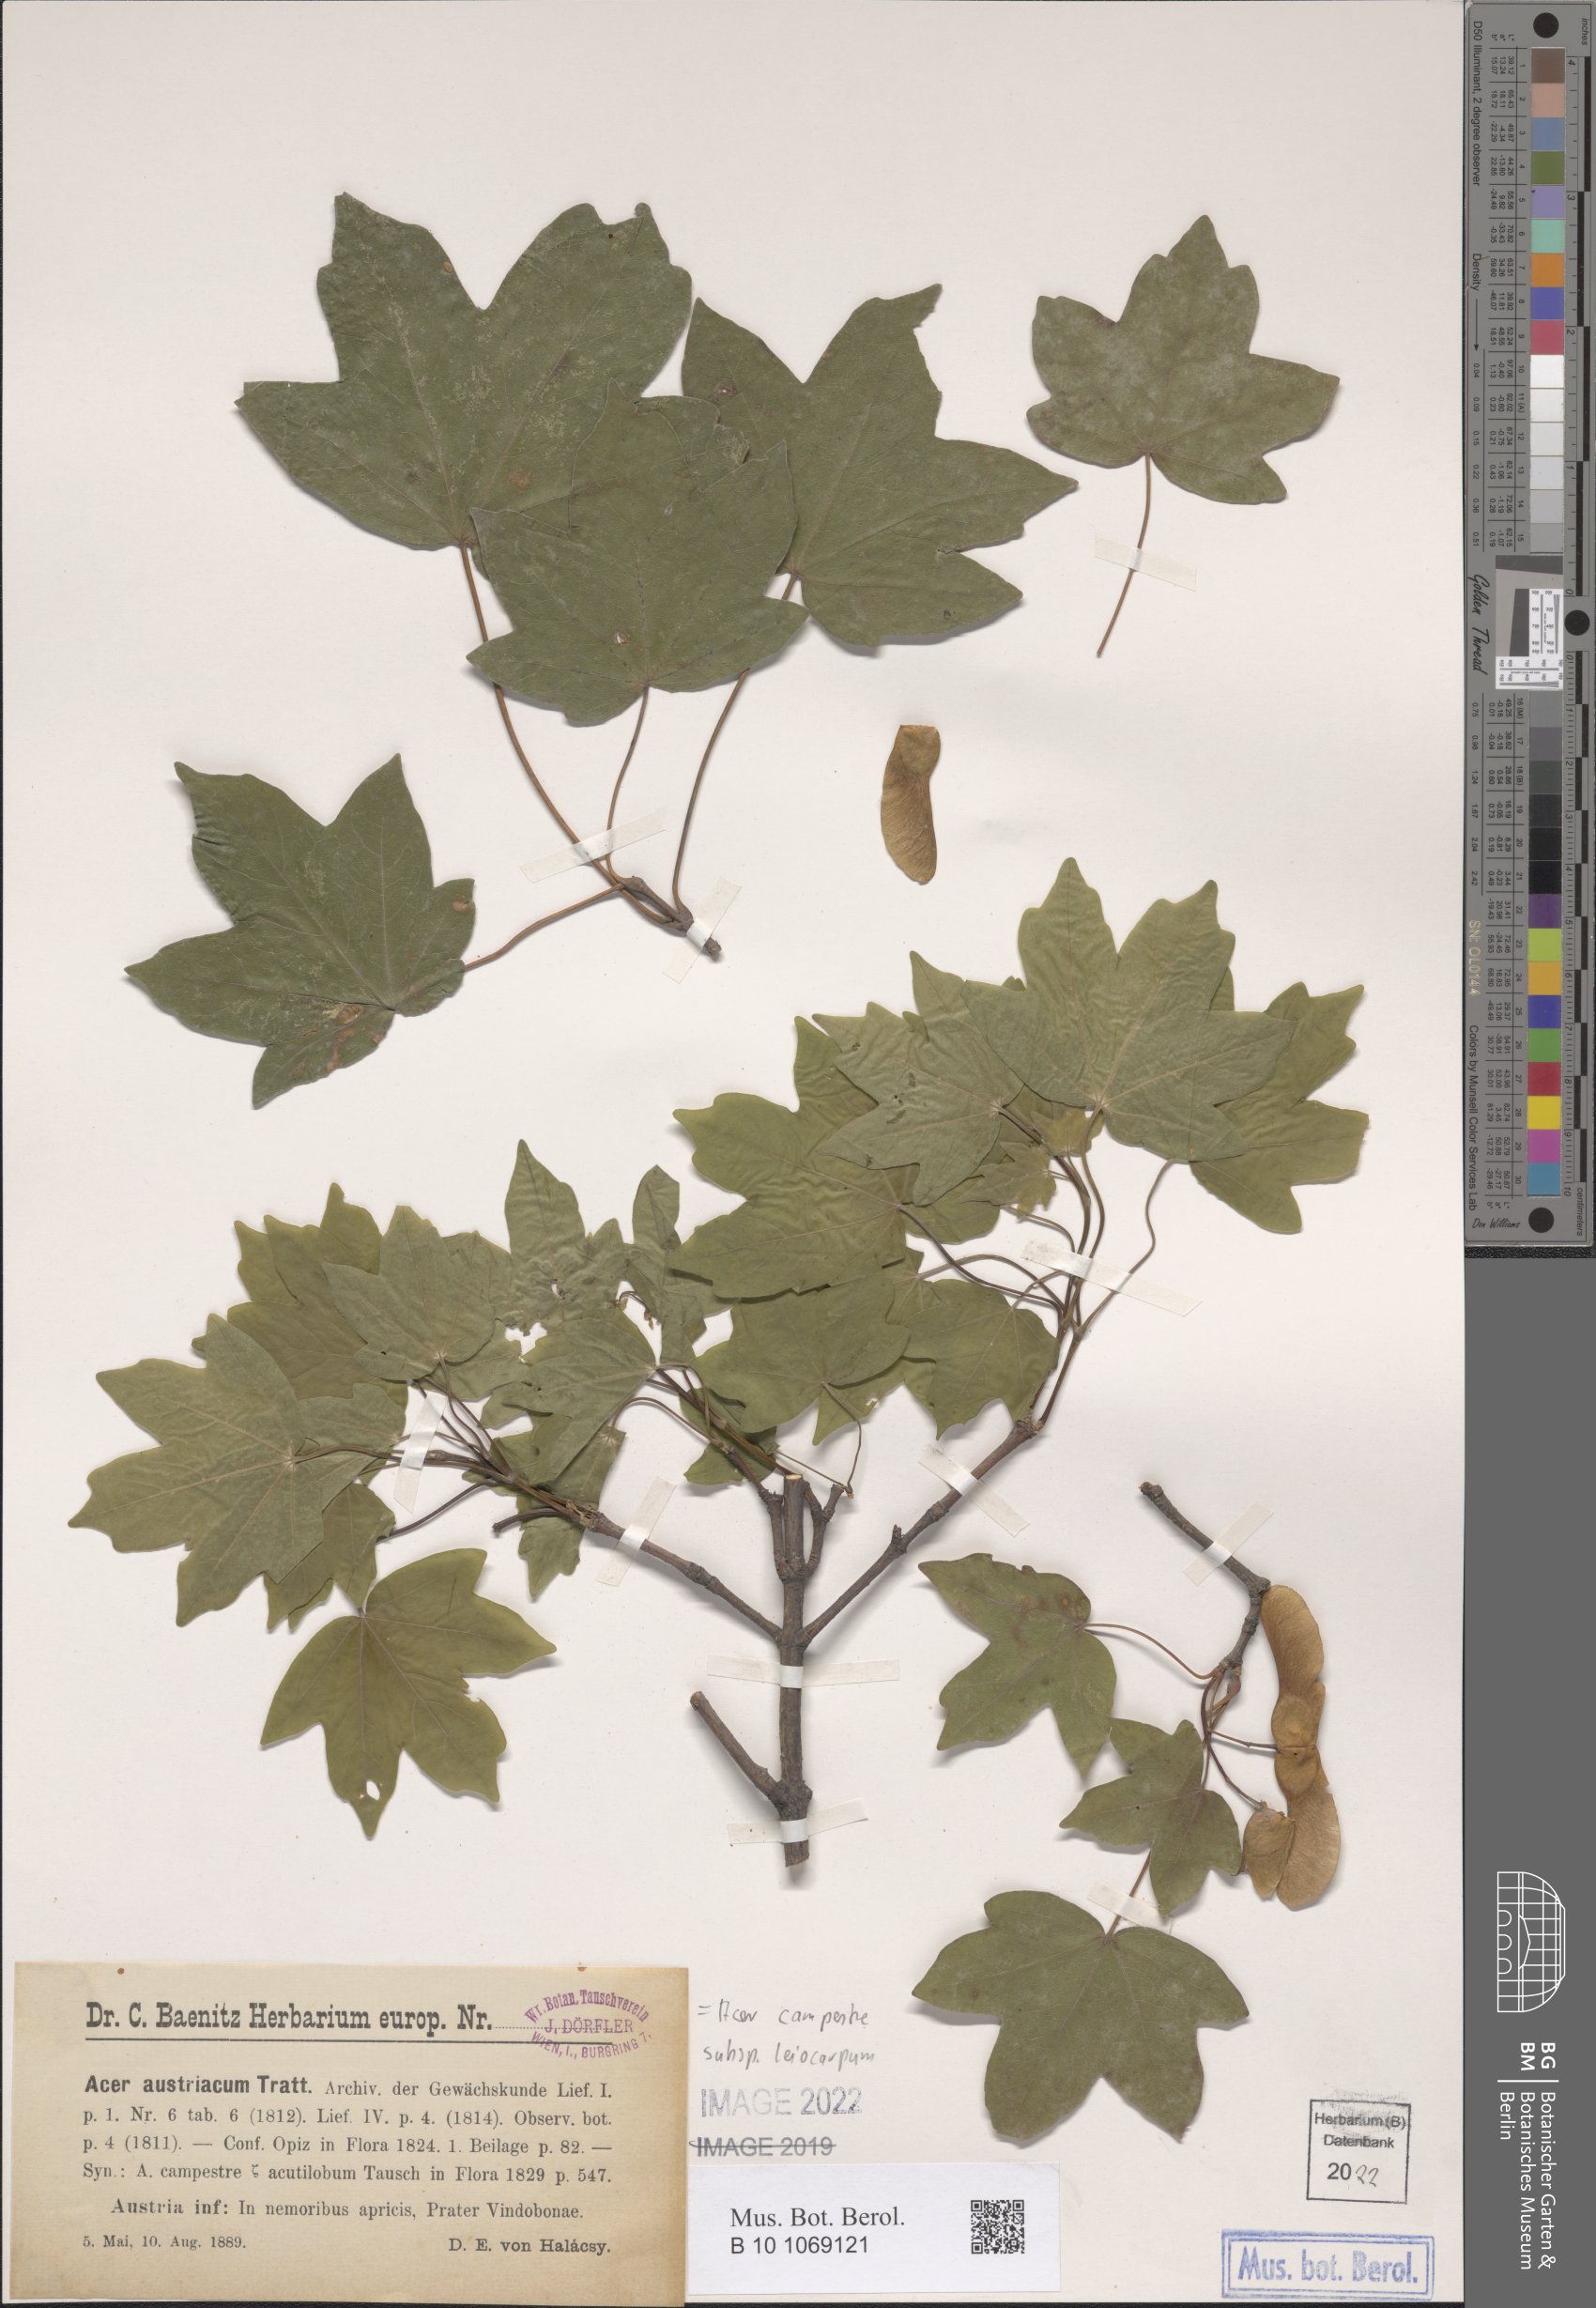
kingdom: Plantae
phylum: Tracheophyta
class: Magnoliopsida
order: Sapindales
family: Sapindaceae
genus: Acer
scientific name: Acer campestre
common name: Field maple
